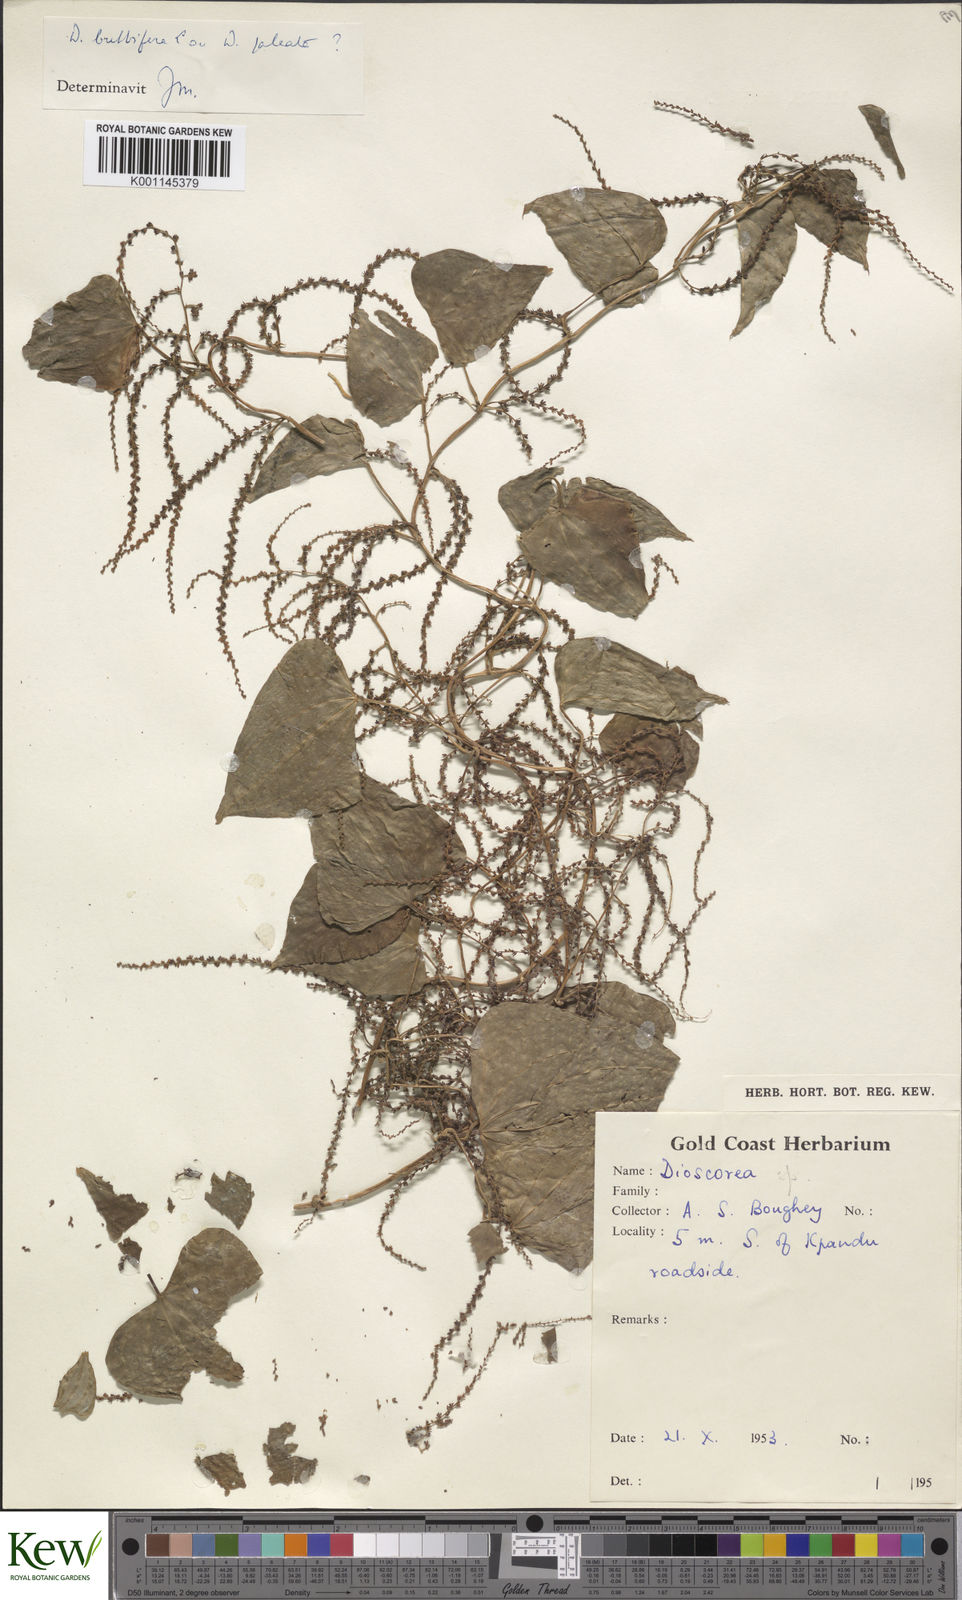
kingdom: Plantae
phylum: Tracheophyta
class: Liliopsida
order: Dioscoreales
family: Dioscoreaceae
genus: Dioscorea
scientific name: Dioscorea bulbifera
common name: Air yam
